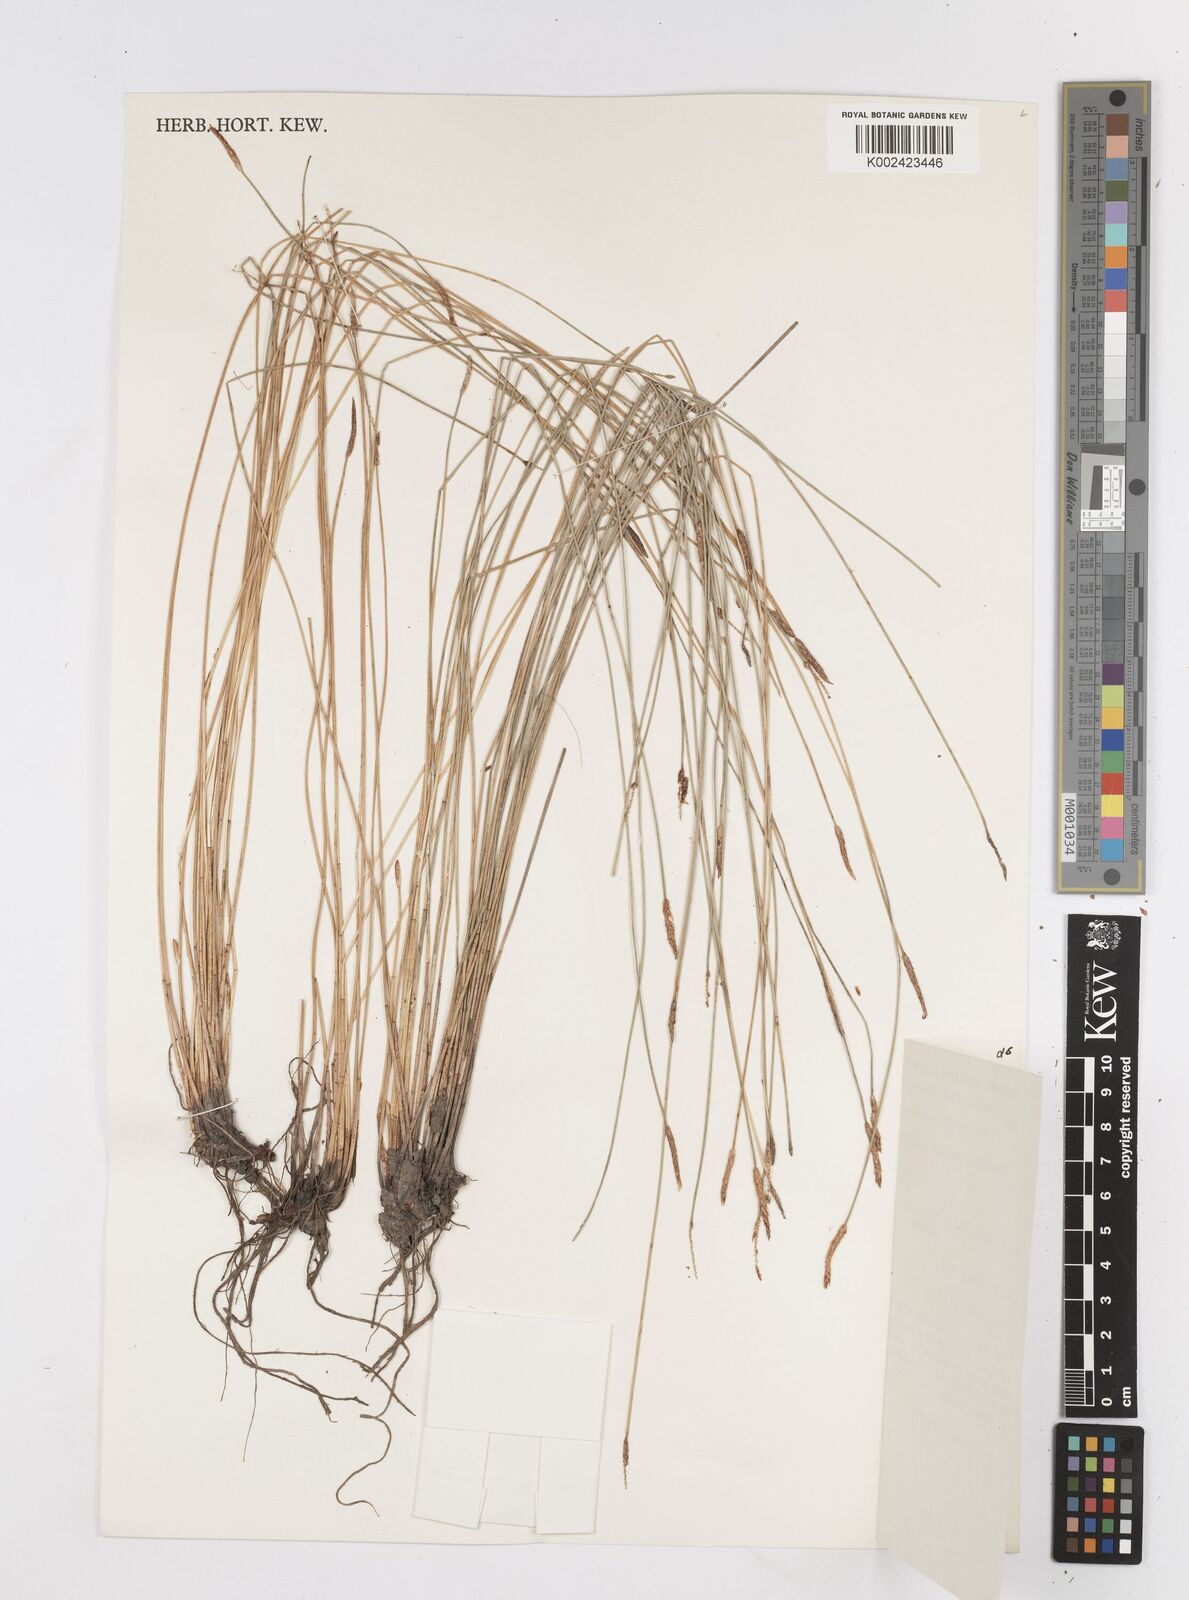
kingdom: Plantae
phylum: Tracheophyta
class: Liliopsida
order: Poales
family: Cyperaceae
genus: Eleocharis
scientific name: Eleocharis acuta
